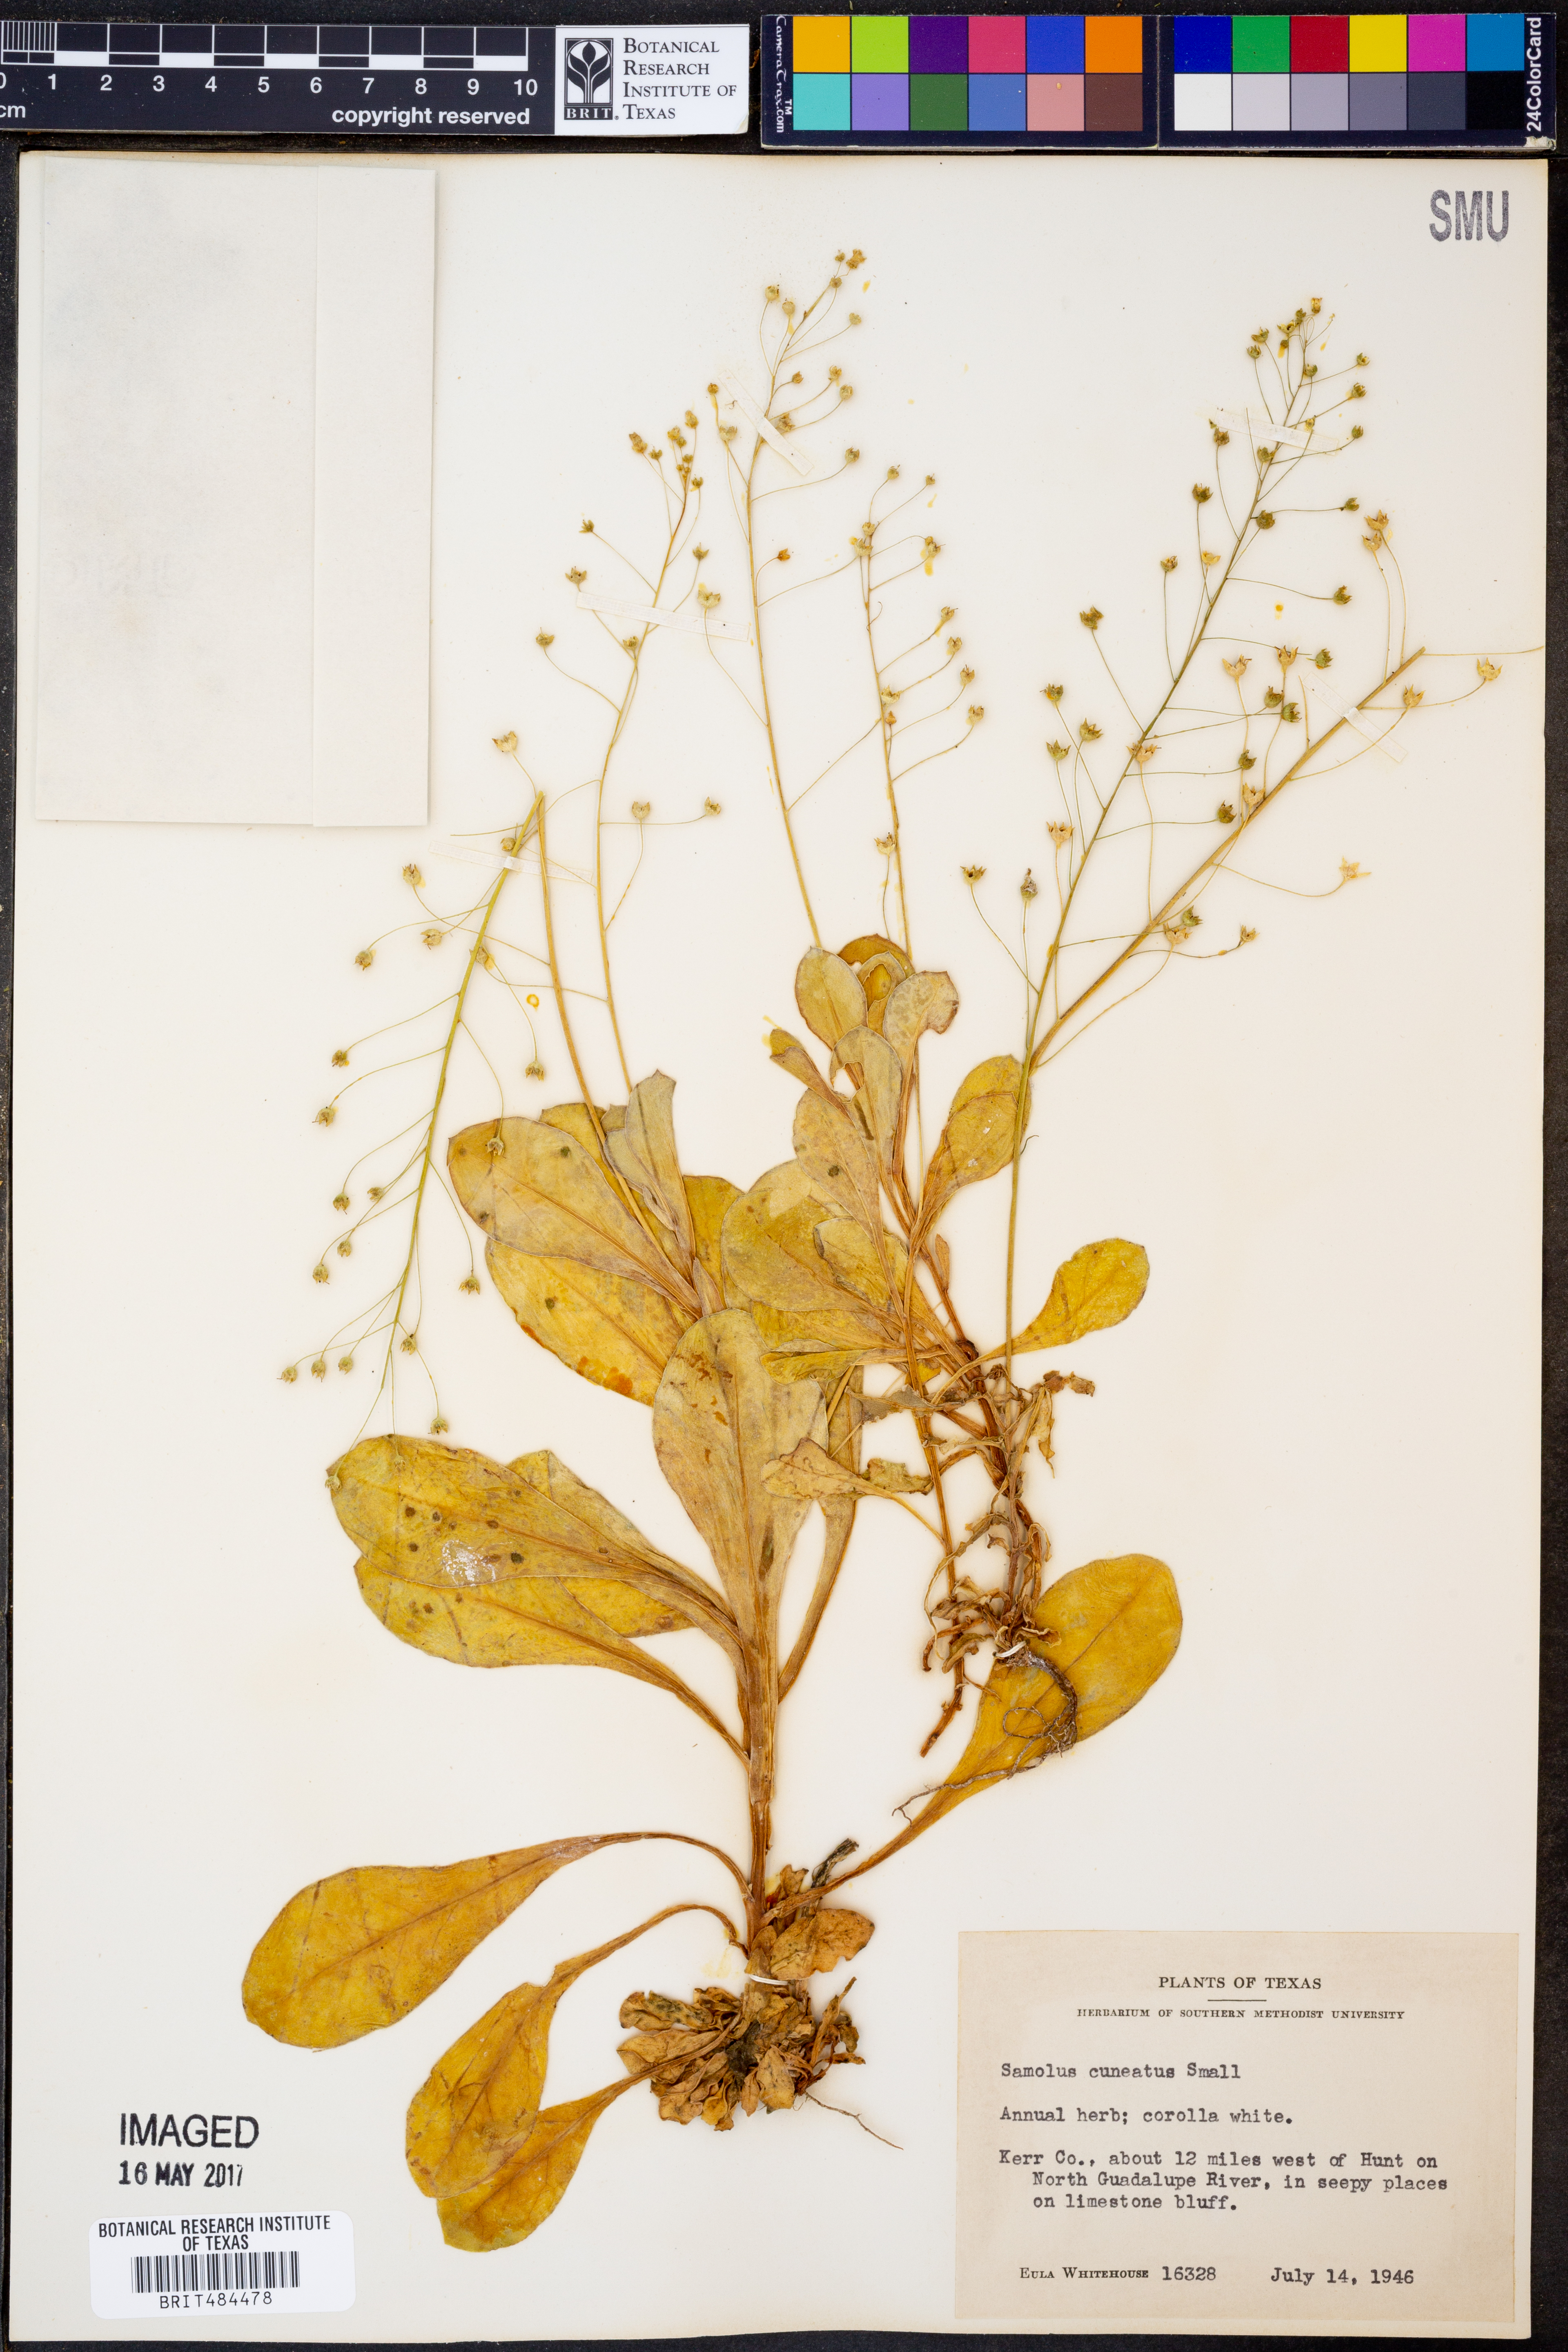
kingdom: Plantae
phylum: Tracheophyta
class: Magnoliopsida
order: Ericales
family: Primulaceae
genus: Samolus
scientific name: Samolus ebracteatus
